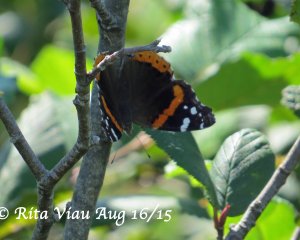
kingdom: Animalia
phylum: Arthropoda
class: Insecta
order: Lepidoptera
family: Nymphalidae
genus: Vanessa
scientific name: Vanessa atalanta
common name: Red Admiral
